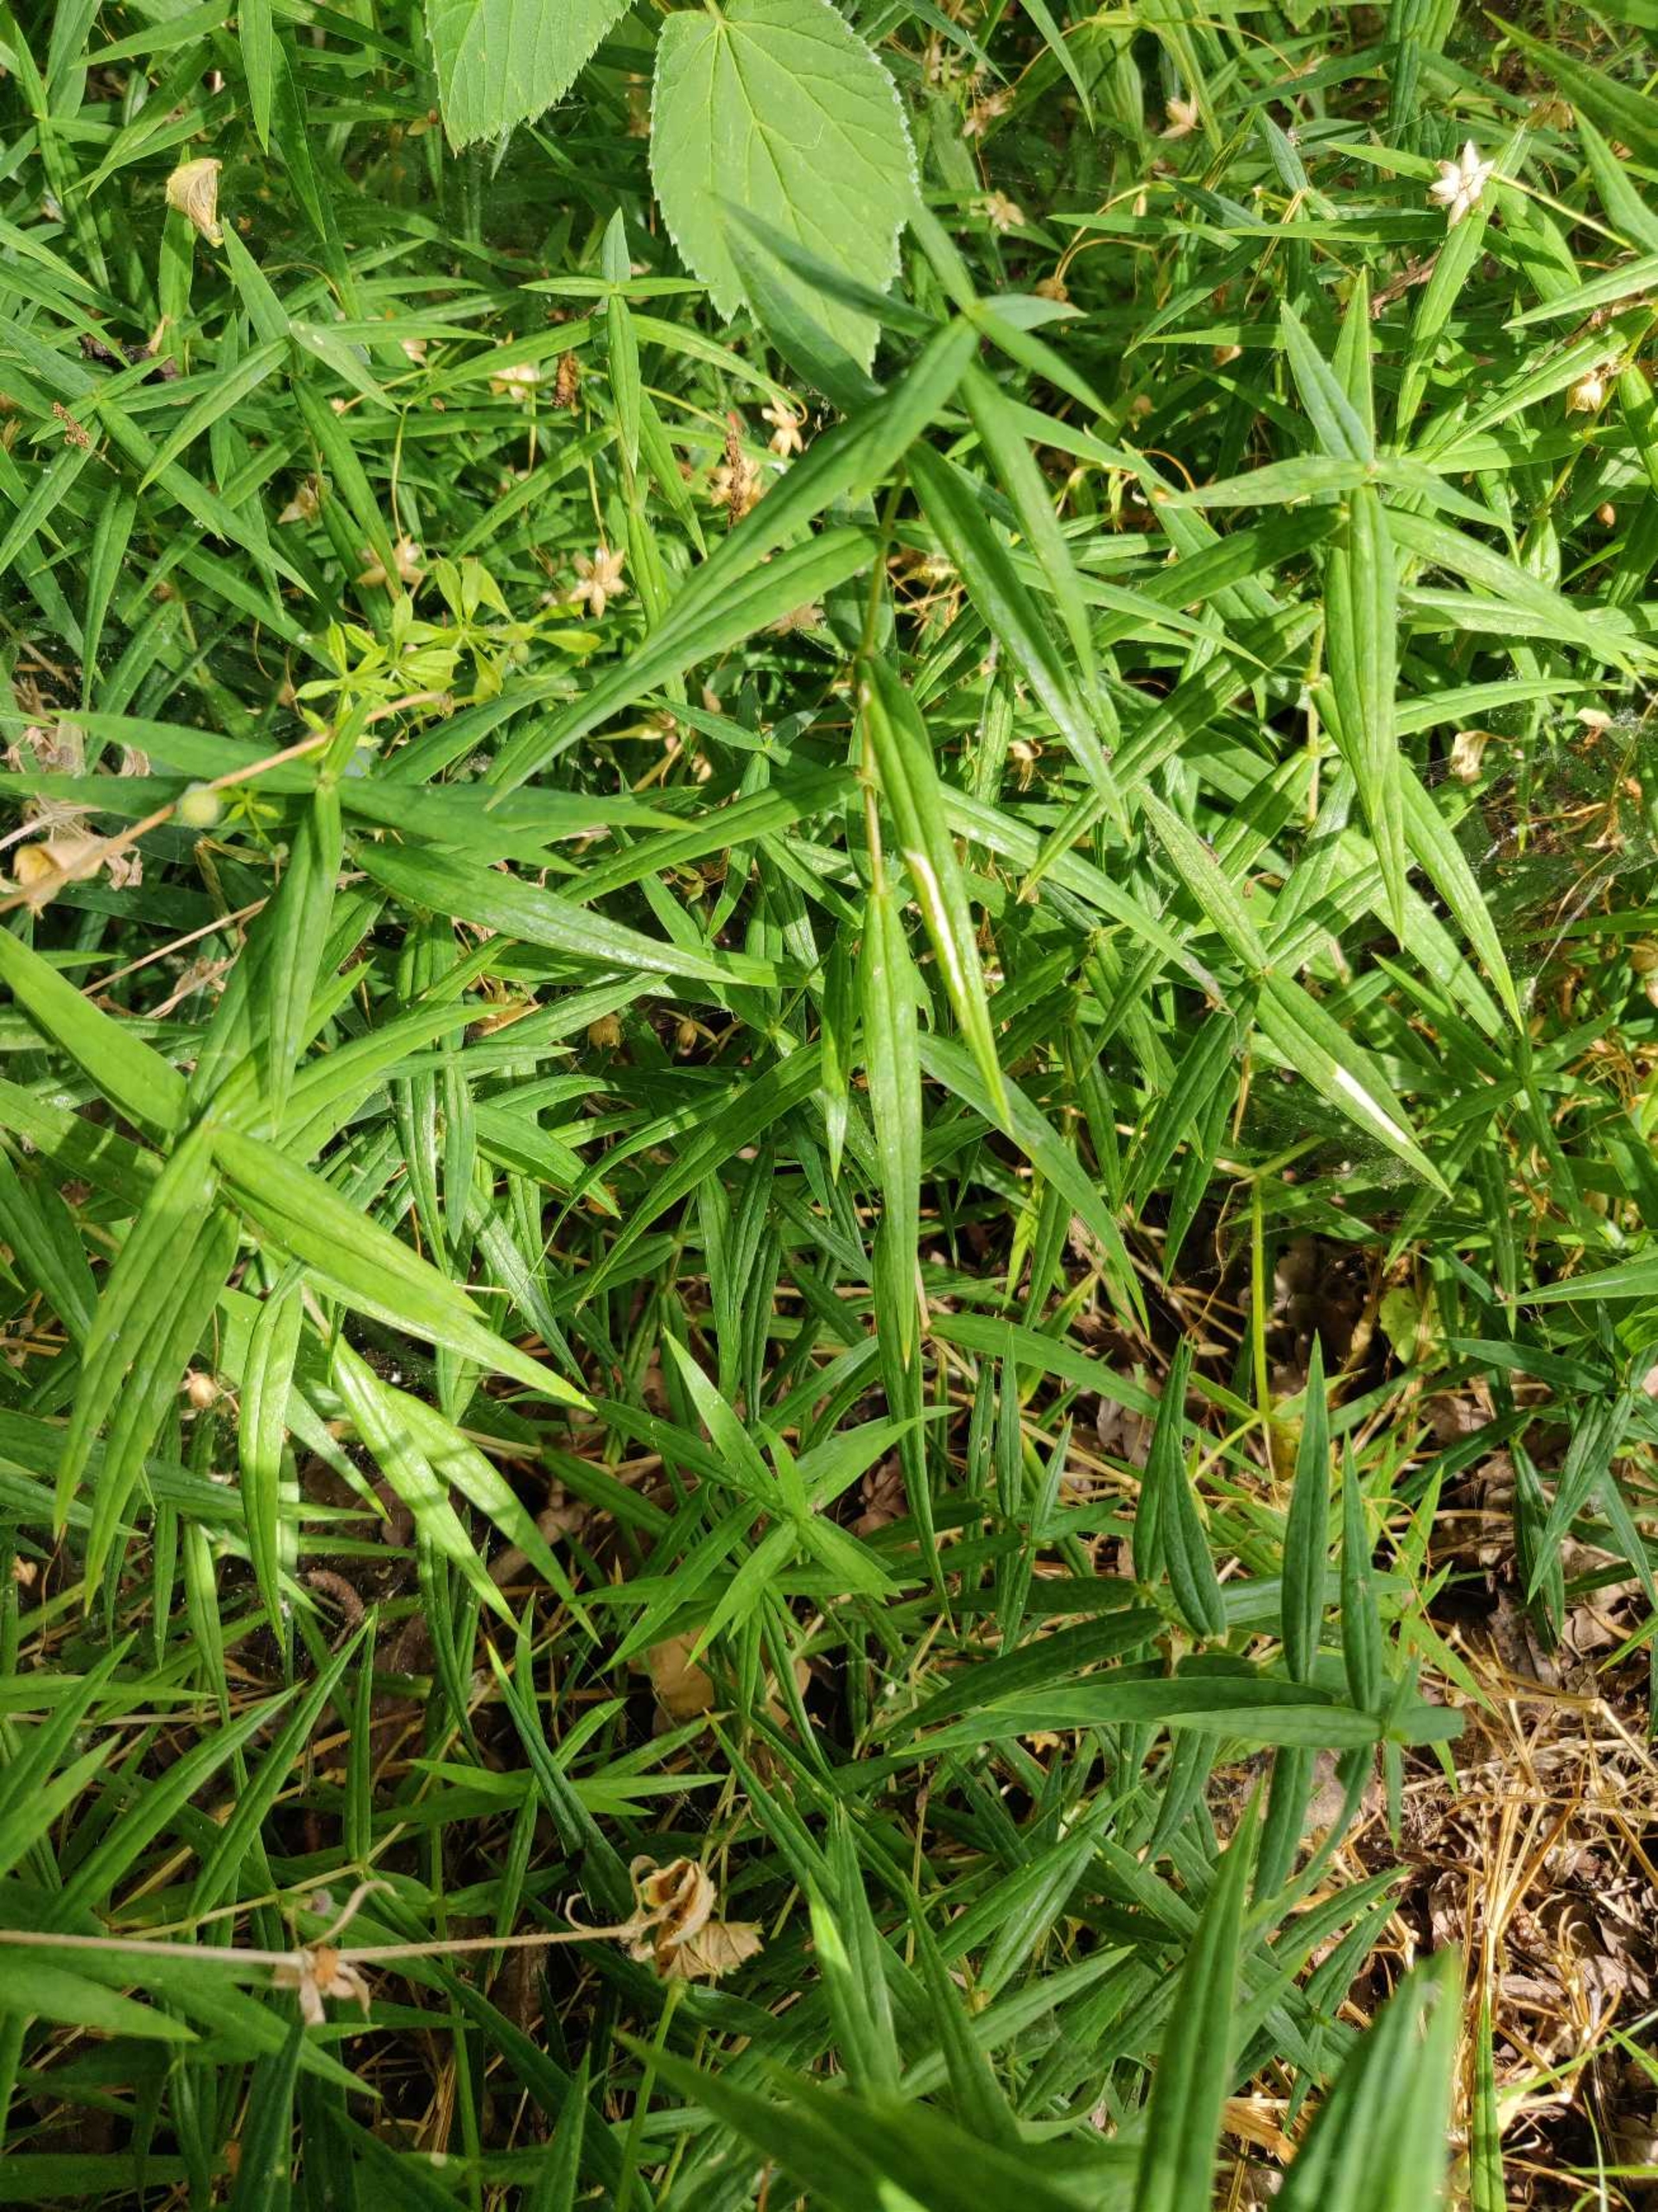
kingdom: Plantae
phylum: Tracheophyta
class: Magnoliopsida
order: Caryophyllales
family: Caryophyllaceae
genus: Rabelera
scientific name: Rabelera holostea
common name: Stor fladstjerne
